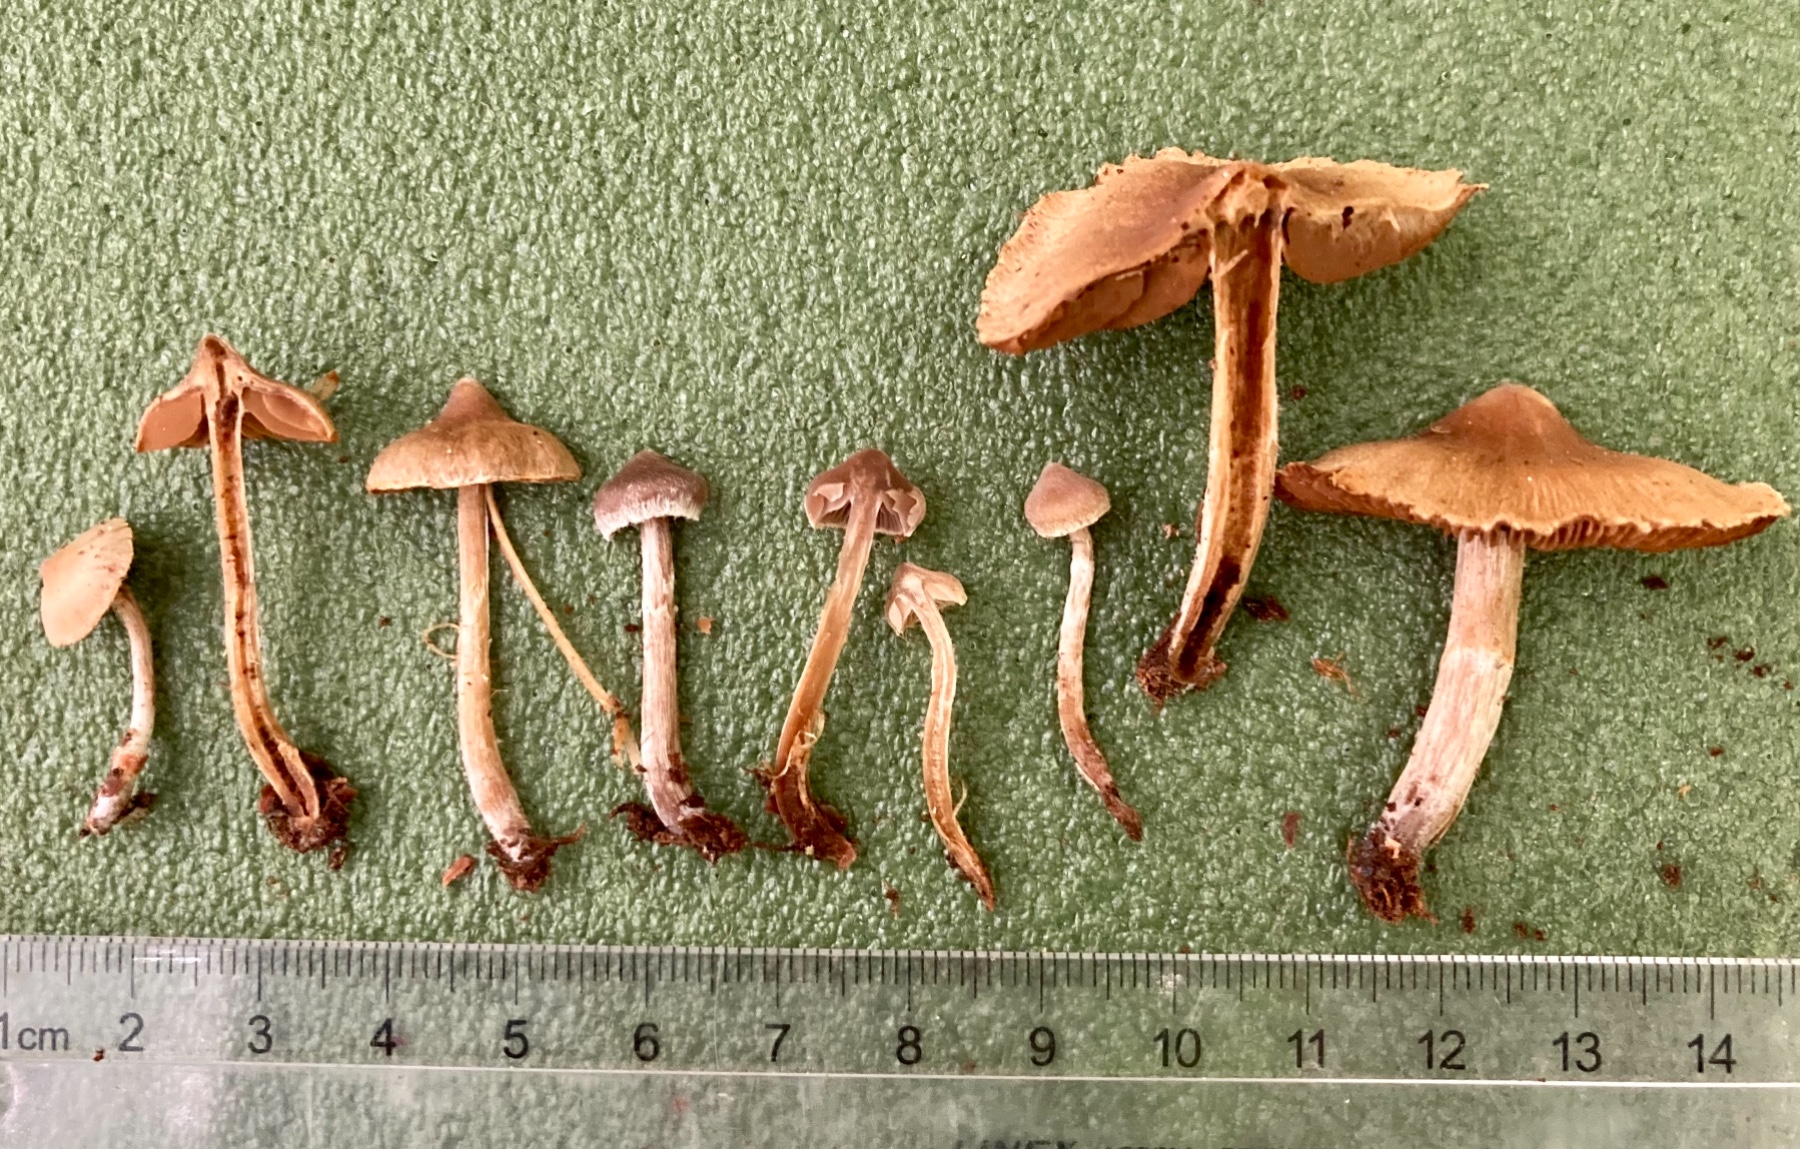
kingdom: Fungi
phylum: Basidiomycota
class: Agaricomycetes
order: Agaricales
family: Cortinariaceae
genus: Cortinarius
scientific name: Cortinarius
